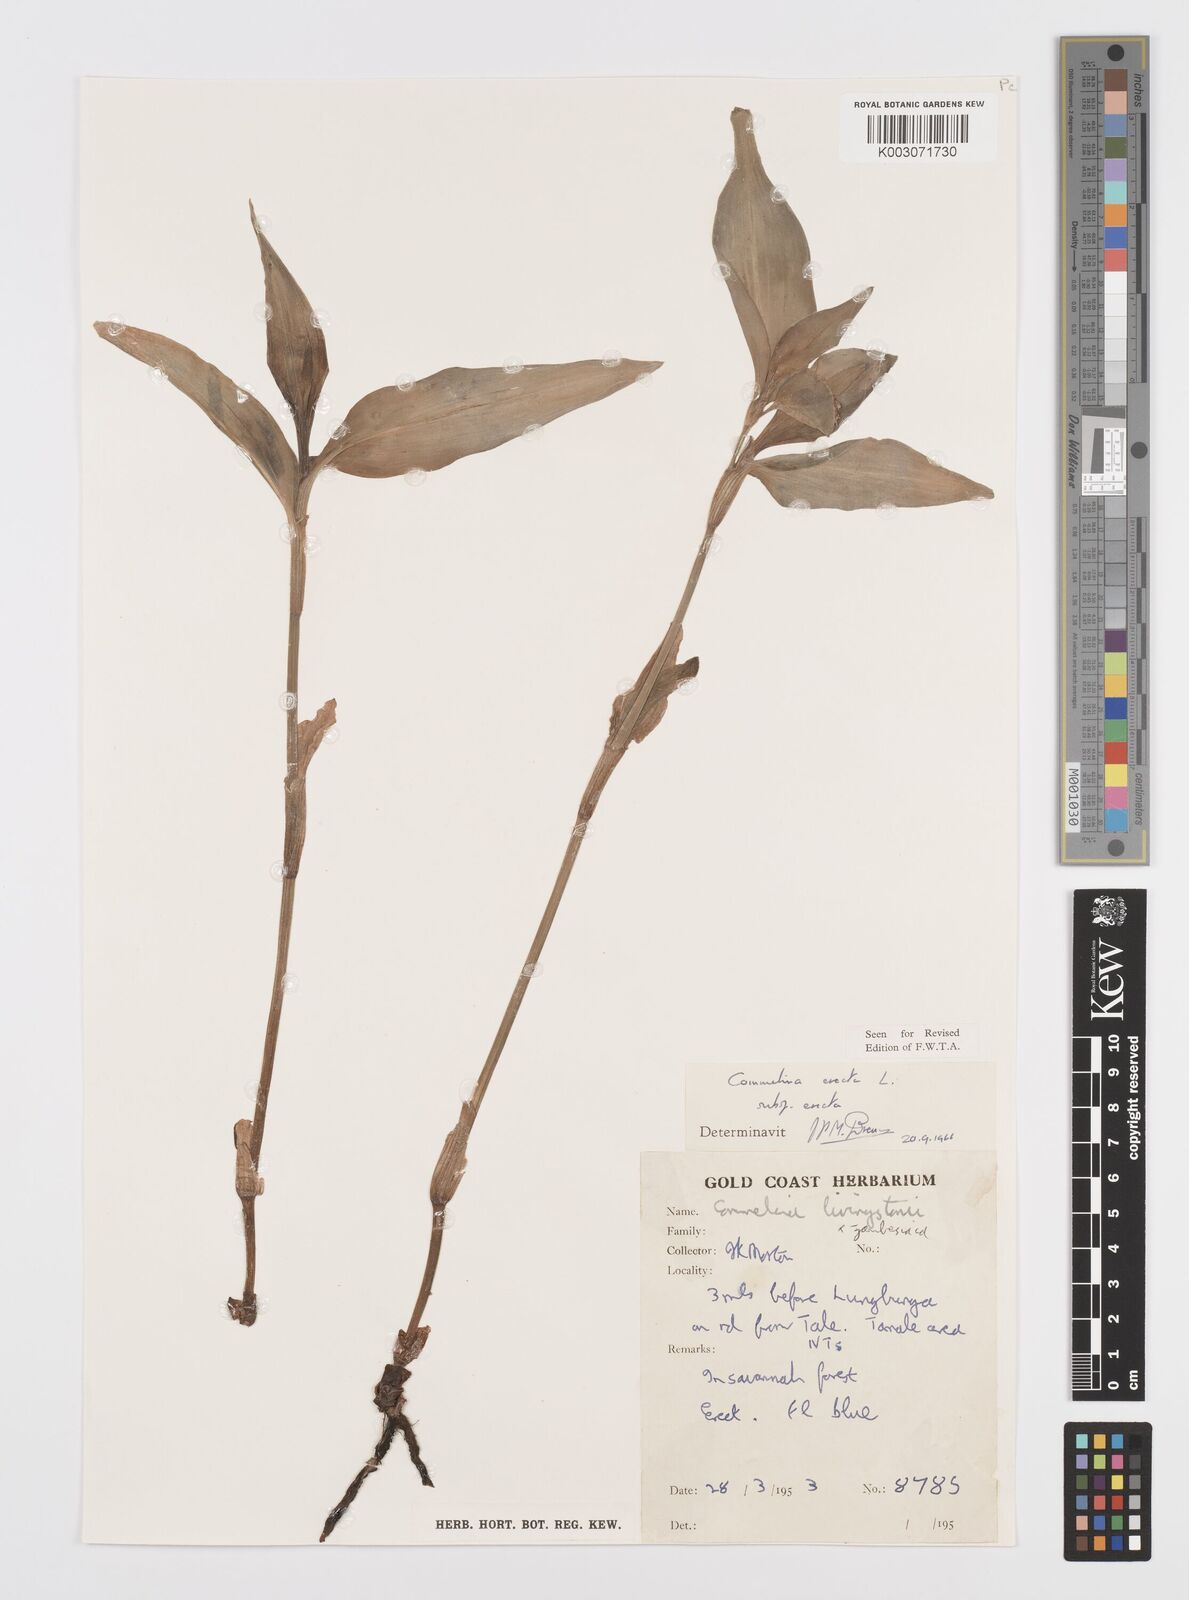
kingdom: Plantae
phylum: Tracheophyta
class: Liliopsida
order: Commelinales
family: Commelinaceae
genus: Commelina
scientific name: Commelina erecta
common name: Blousel blommetjie
